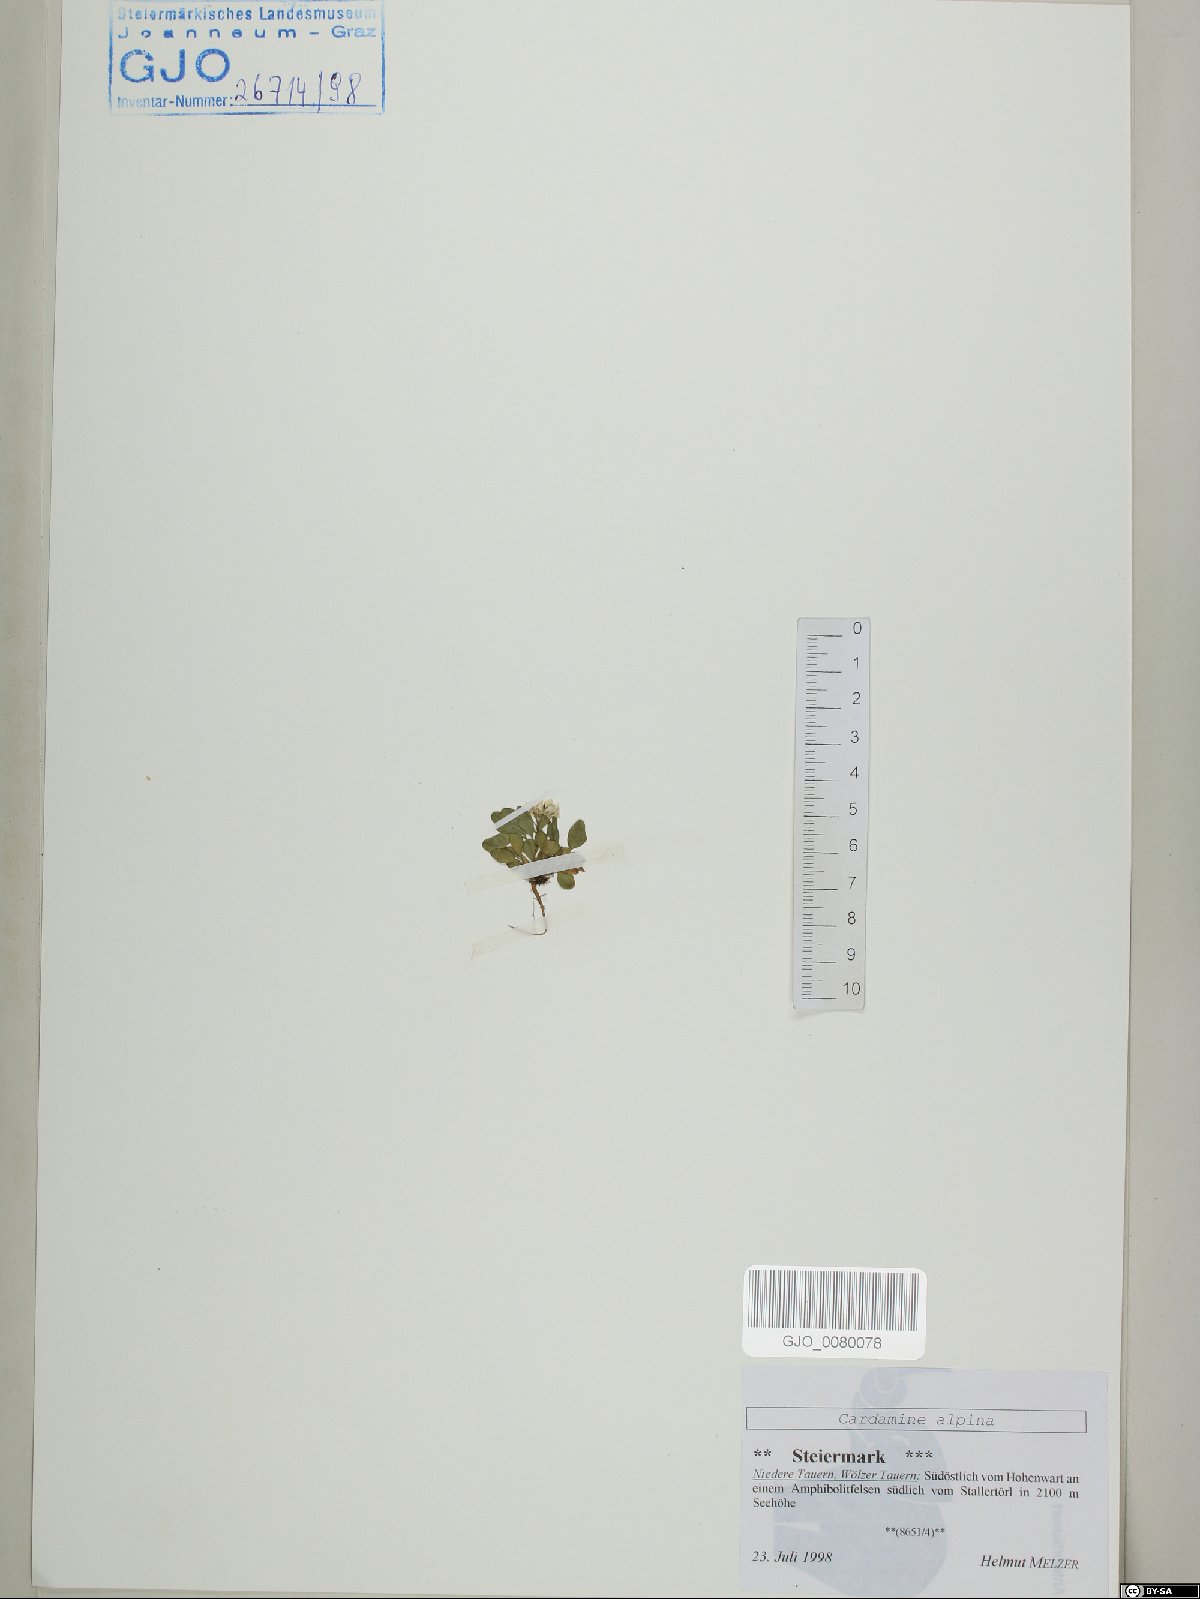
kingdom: Plantae
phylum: Tracheophyta
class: Magnoliopsida
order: Brassicales
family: Brassicaceae
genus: Cardamine
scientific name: Cardamine bellidifolia
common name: Alpine bittercress
